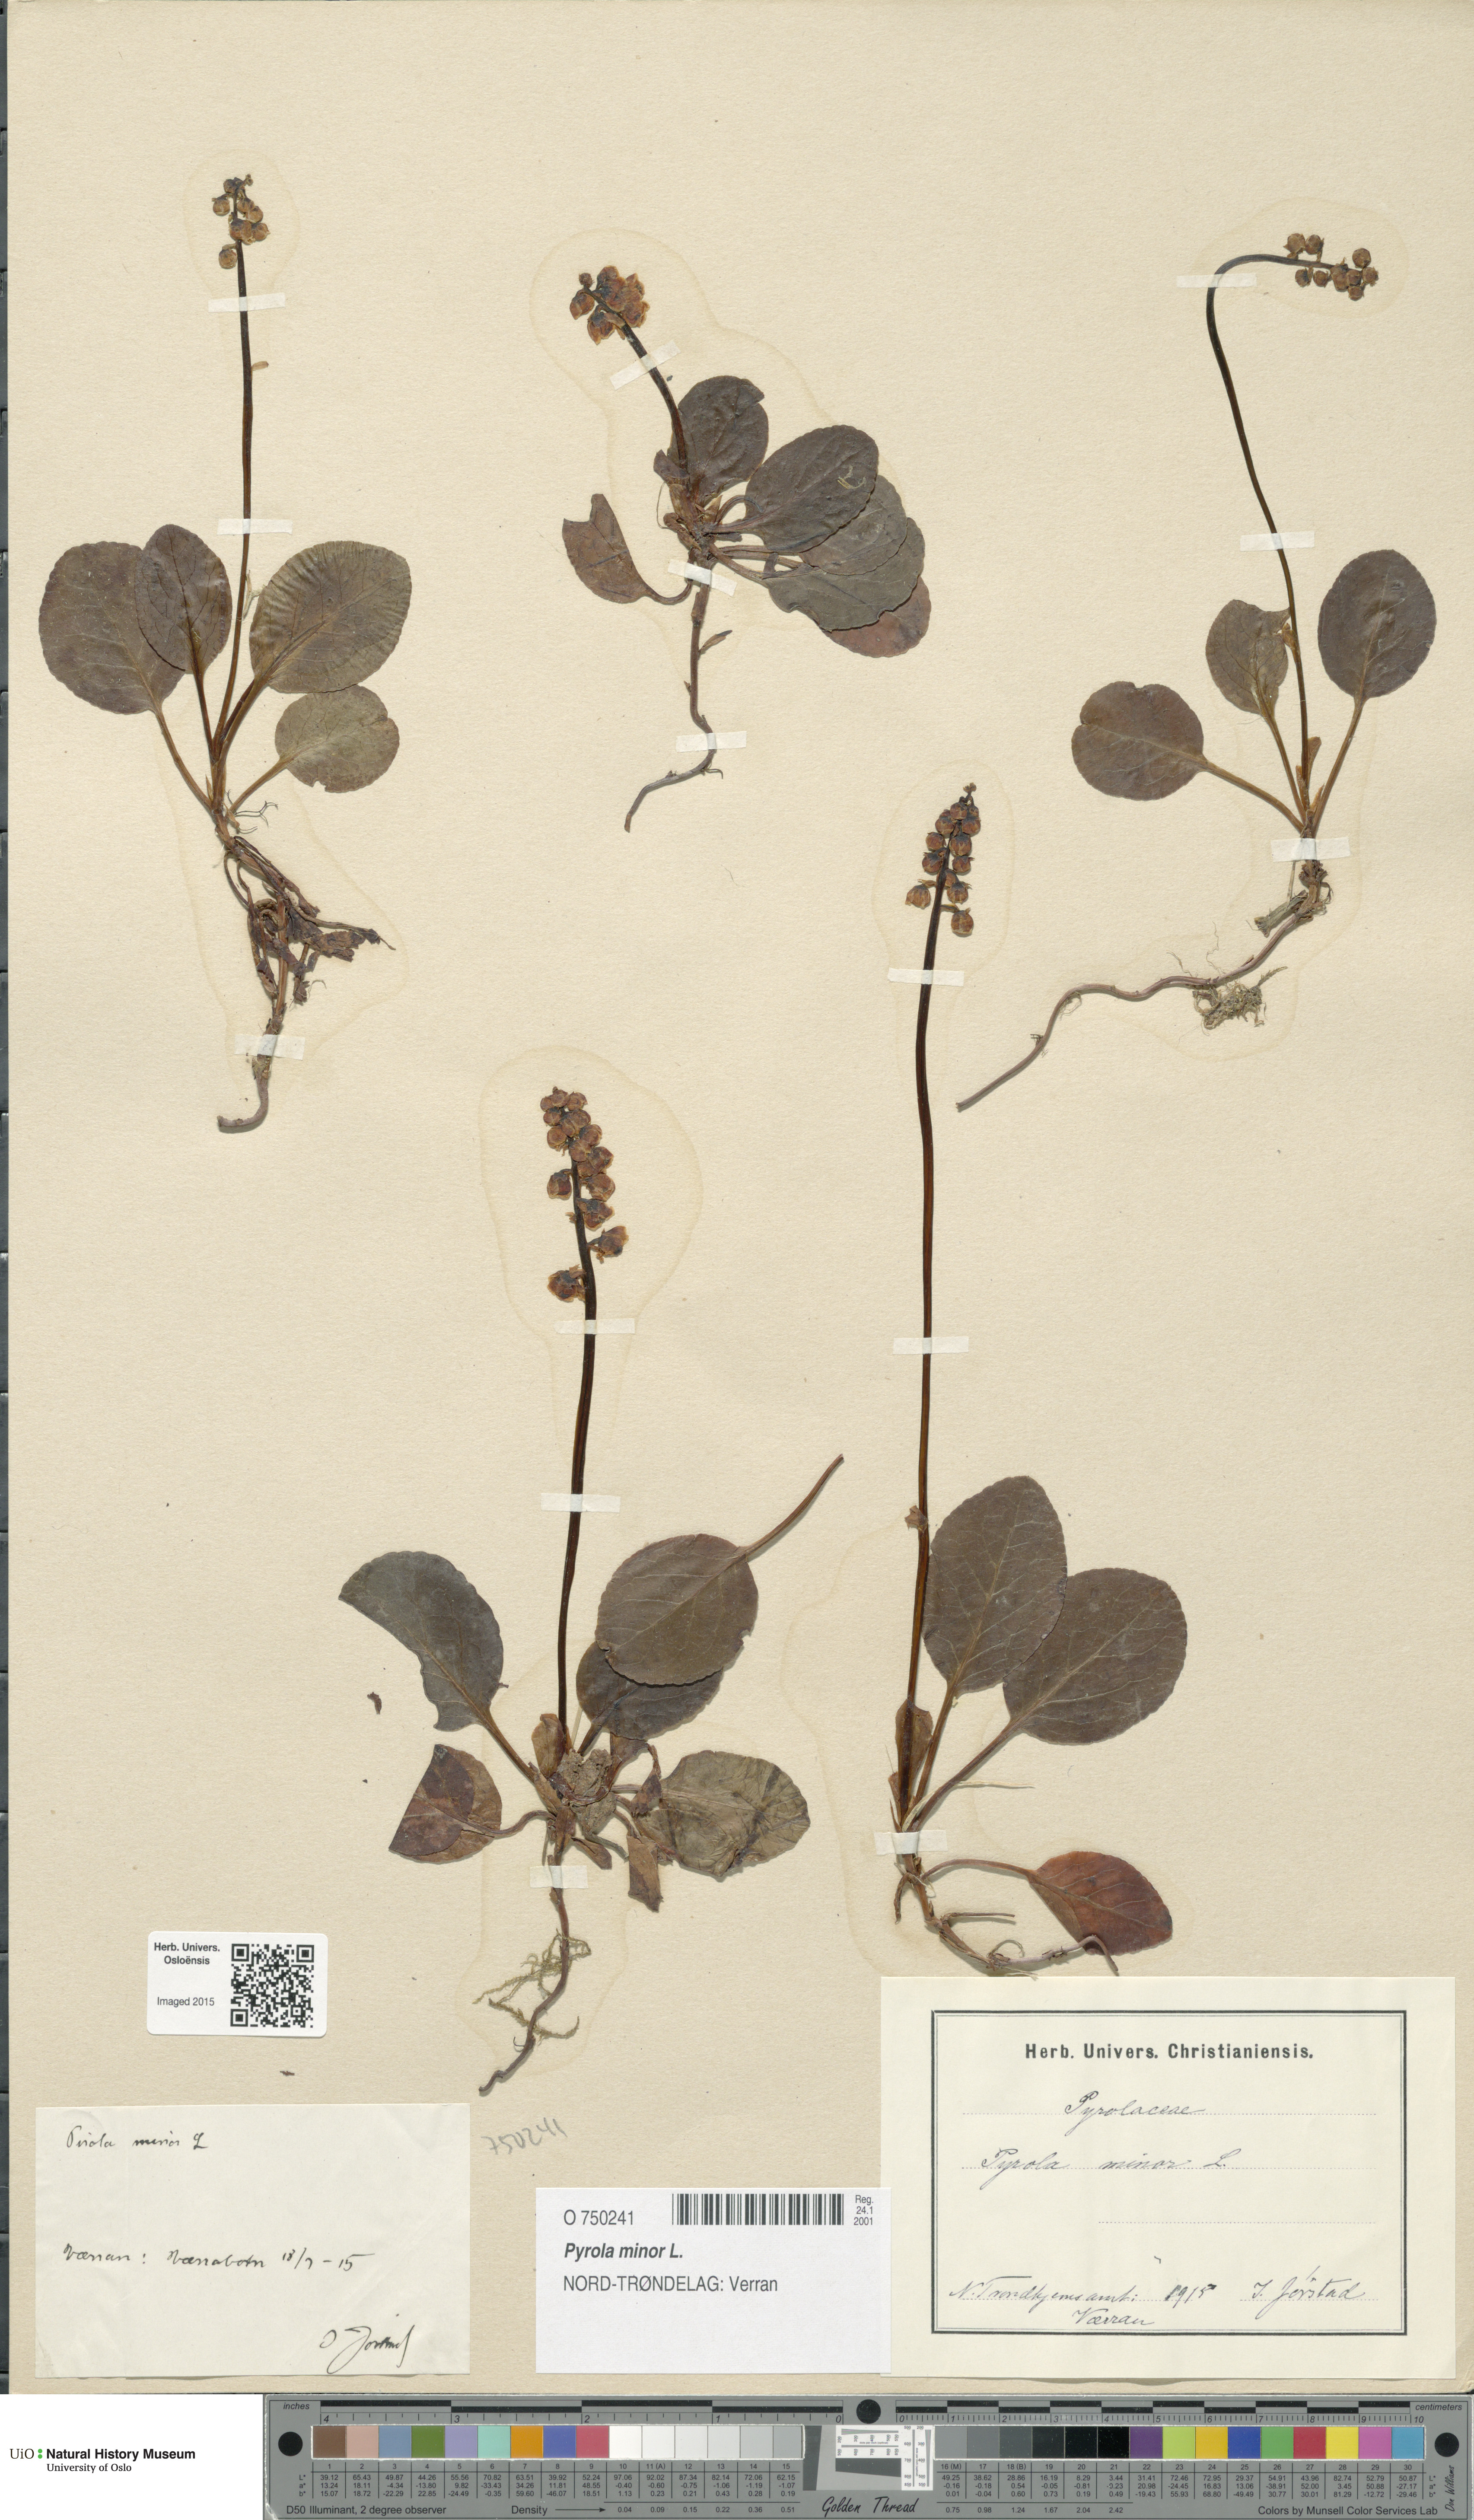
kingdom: Plantae
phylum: Tracheophyta
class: Magnoliopsida
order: Ericales
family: Ericaceae
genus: Pyrola
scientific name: Pyrola minor
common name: Common wintergreen
